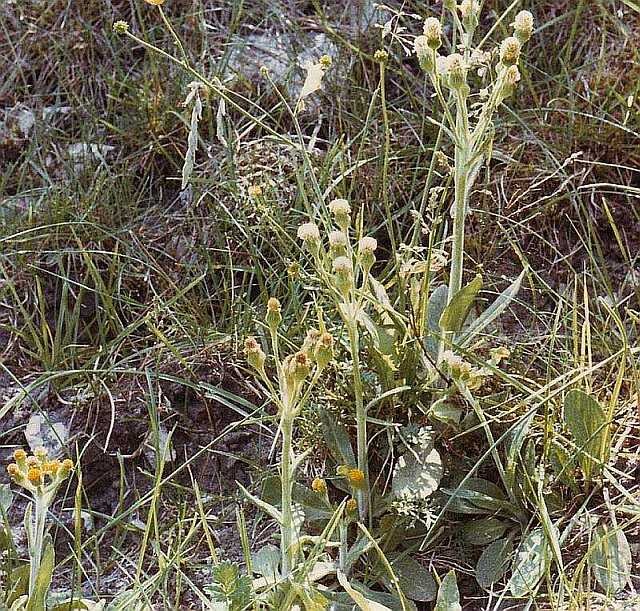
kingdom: Plantae
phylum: Tracheophyta
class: Magnoliopsida
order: Asterales
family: Asteraceae
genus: Tephroseris
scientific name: Tephroseris integrifolia
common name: Bakke-fnokurt
